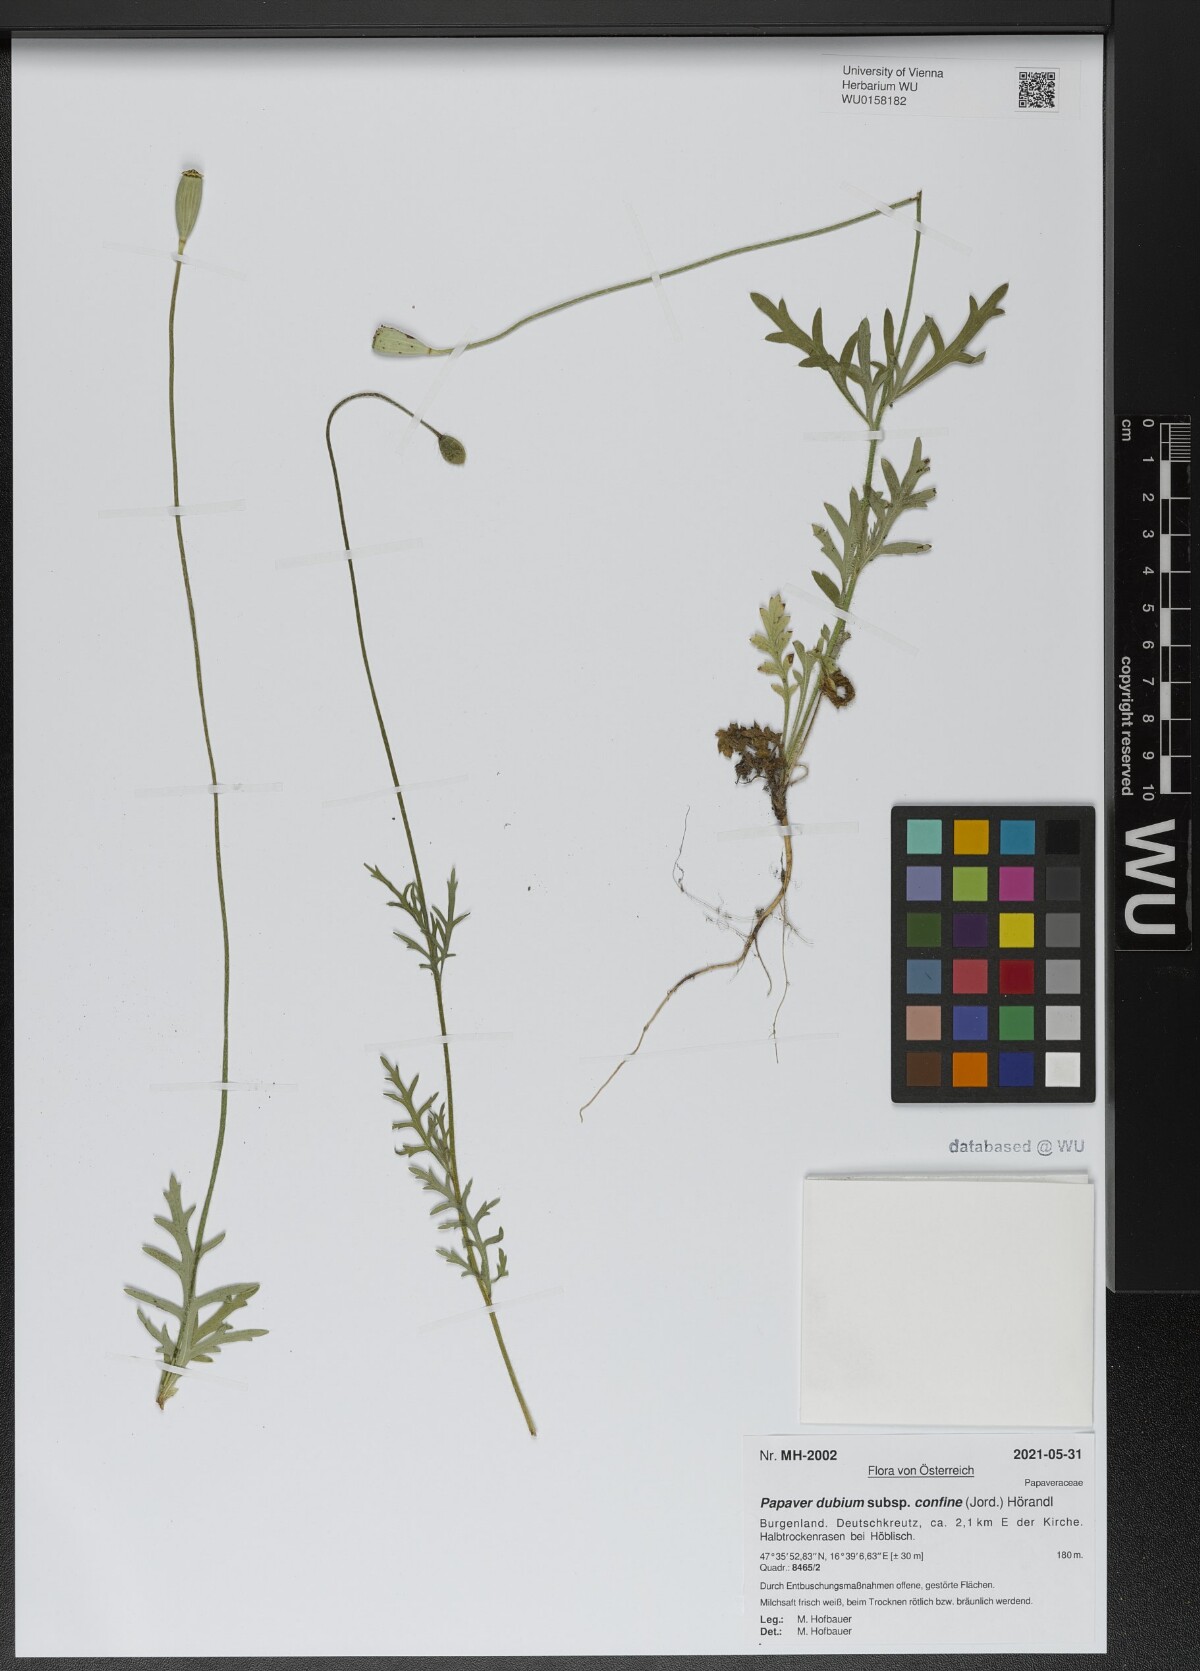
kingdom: Plantae
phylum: Tracheophyta
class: Magnoliopsida
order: Ranunculales
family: Papaveraceae
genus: Papaver
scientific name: Papaver confine
